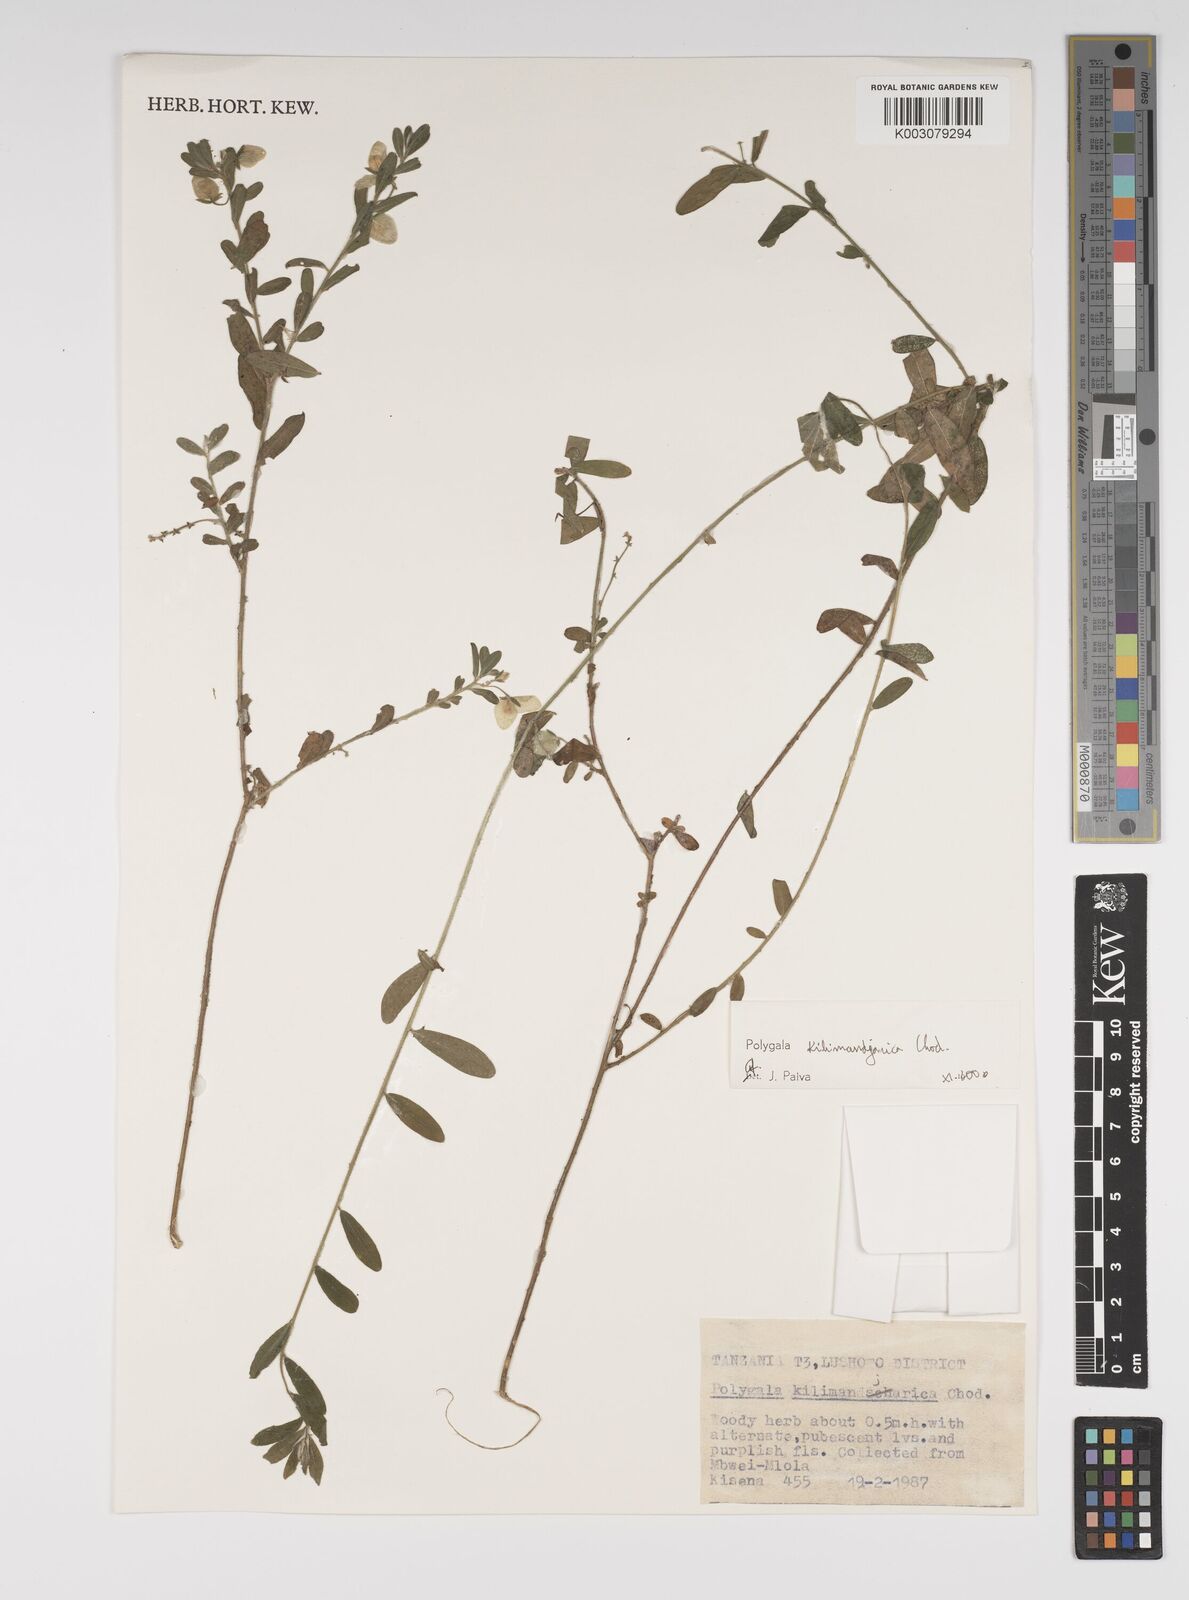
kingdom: Plantae
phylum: Tracheophyta
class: Magnoliopsida
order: Fabales
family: Polygalaceae
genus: Polygala
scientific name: Polygala kilimandjarica
